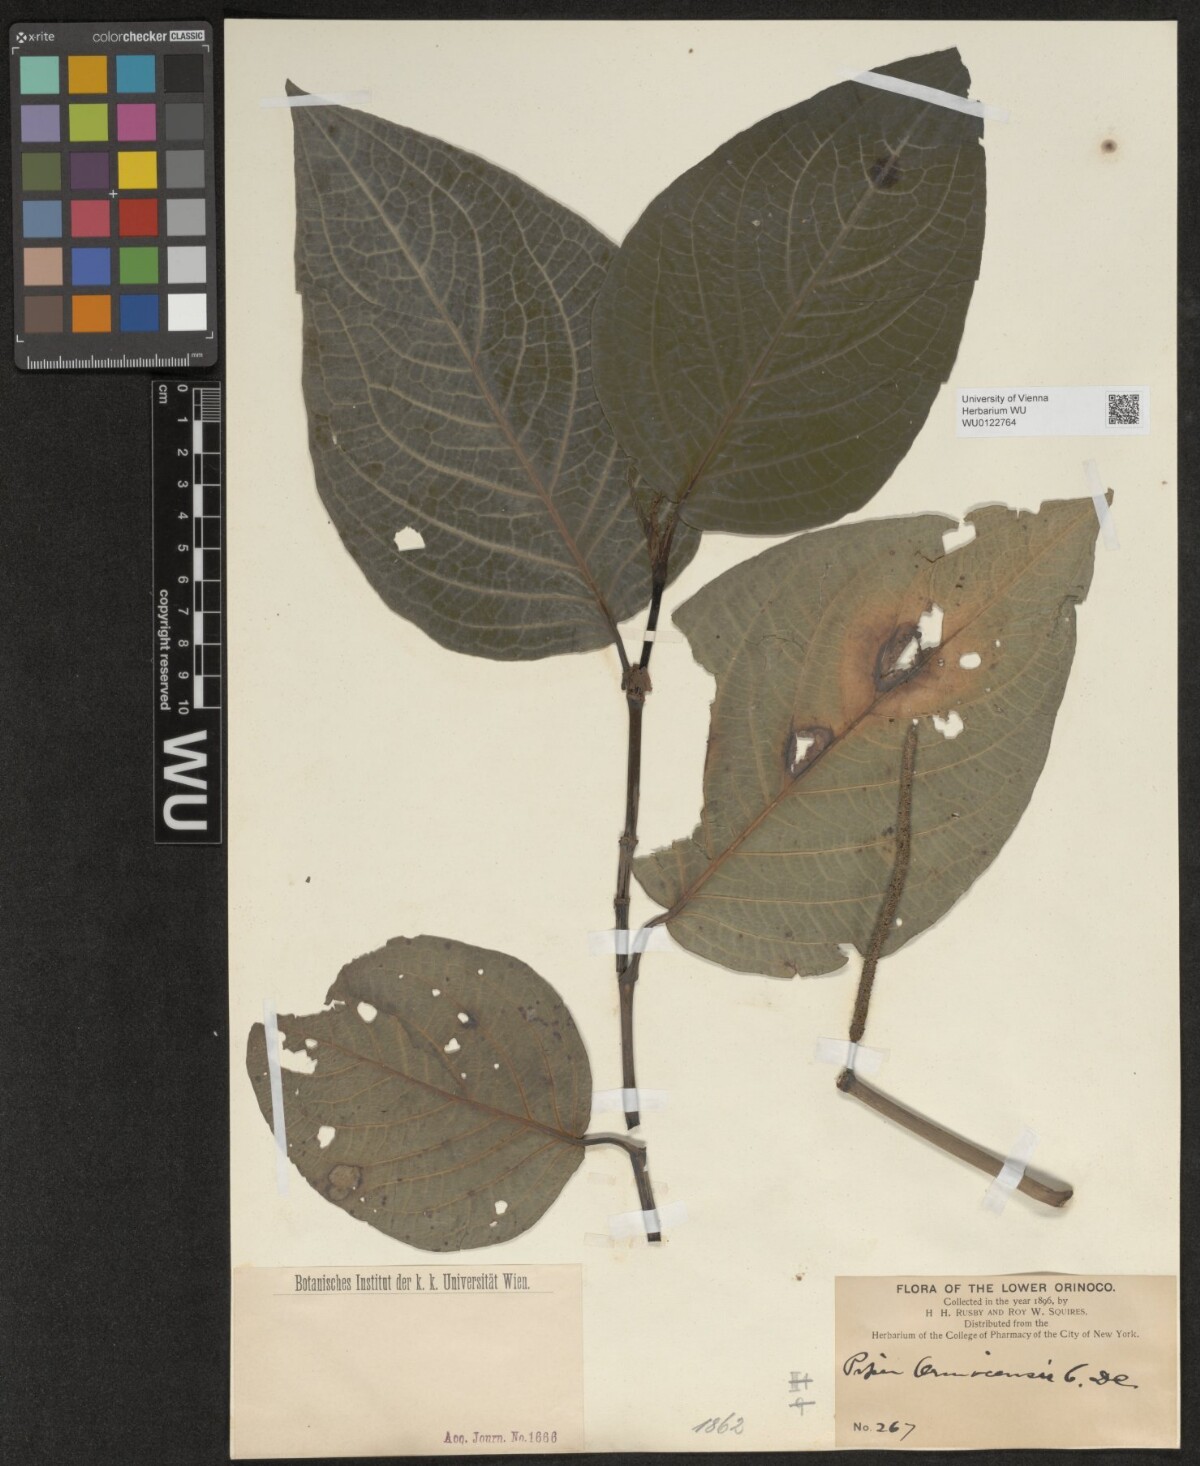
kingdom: Plantae
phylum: Tracheophyta
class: Magnoliopsida
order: Piperales
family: Piperaceae
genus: Piper
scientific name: Piper coruscans
